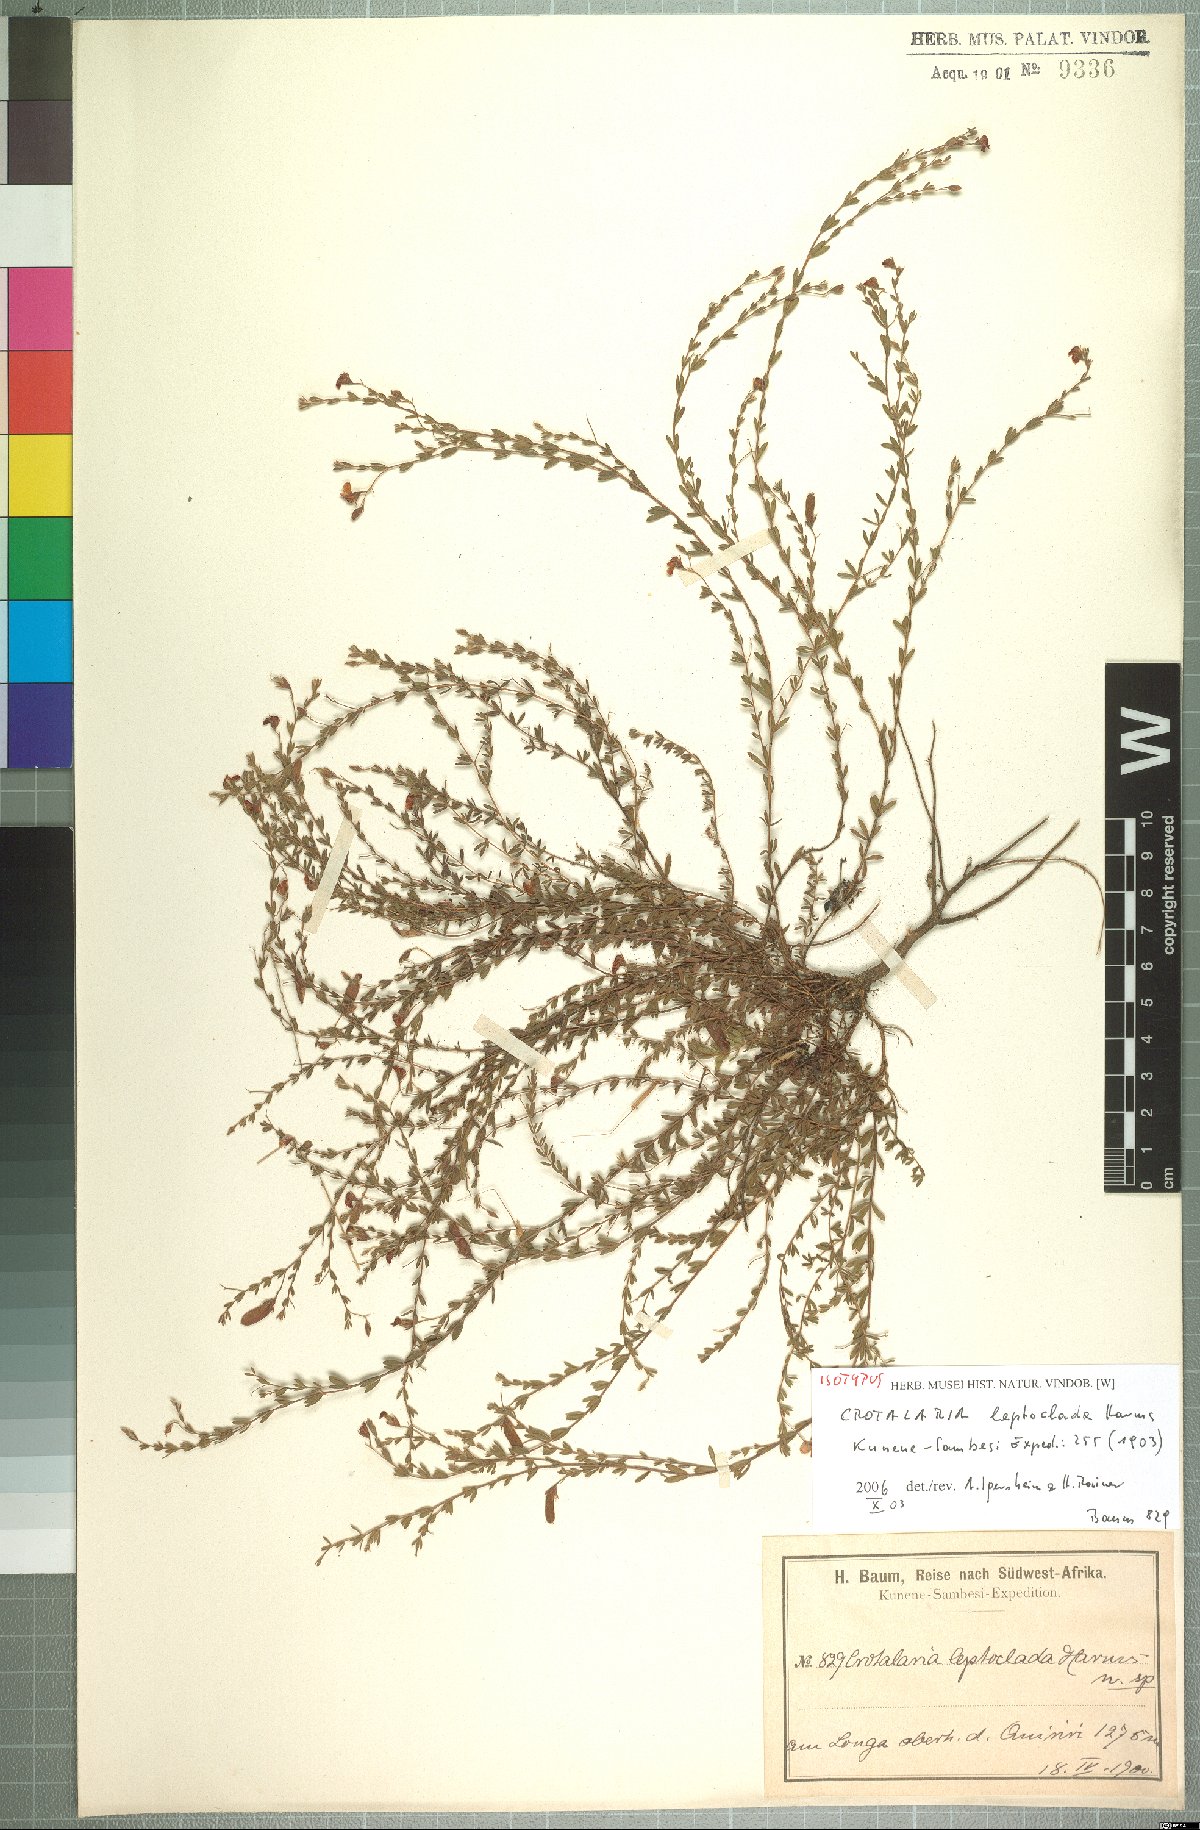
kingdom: Plantae
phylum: Tracheophyta
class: Magnoliopsida
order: Fabales
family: Fabaceae
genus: Crotalaria
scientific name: Crotalaria leptoclada
